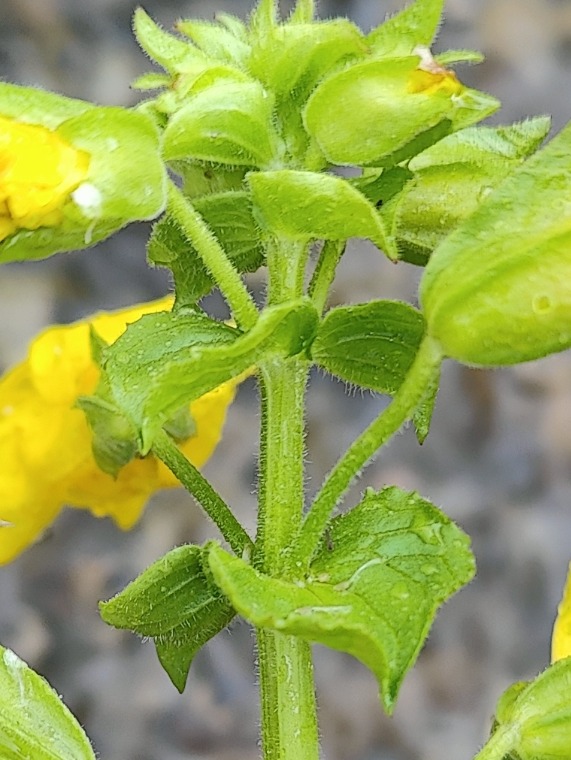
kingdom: Plantae
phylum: Tracheophyta
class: Magnoliopsida
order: Lamiales
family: Phrymaceae
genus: Erythranthe
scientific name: Erythranthe guttata
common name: Abeblomst
